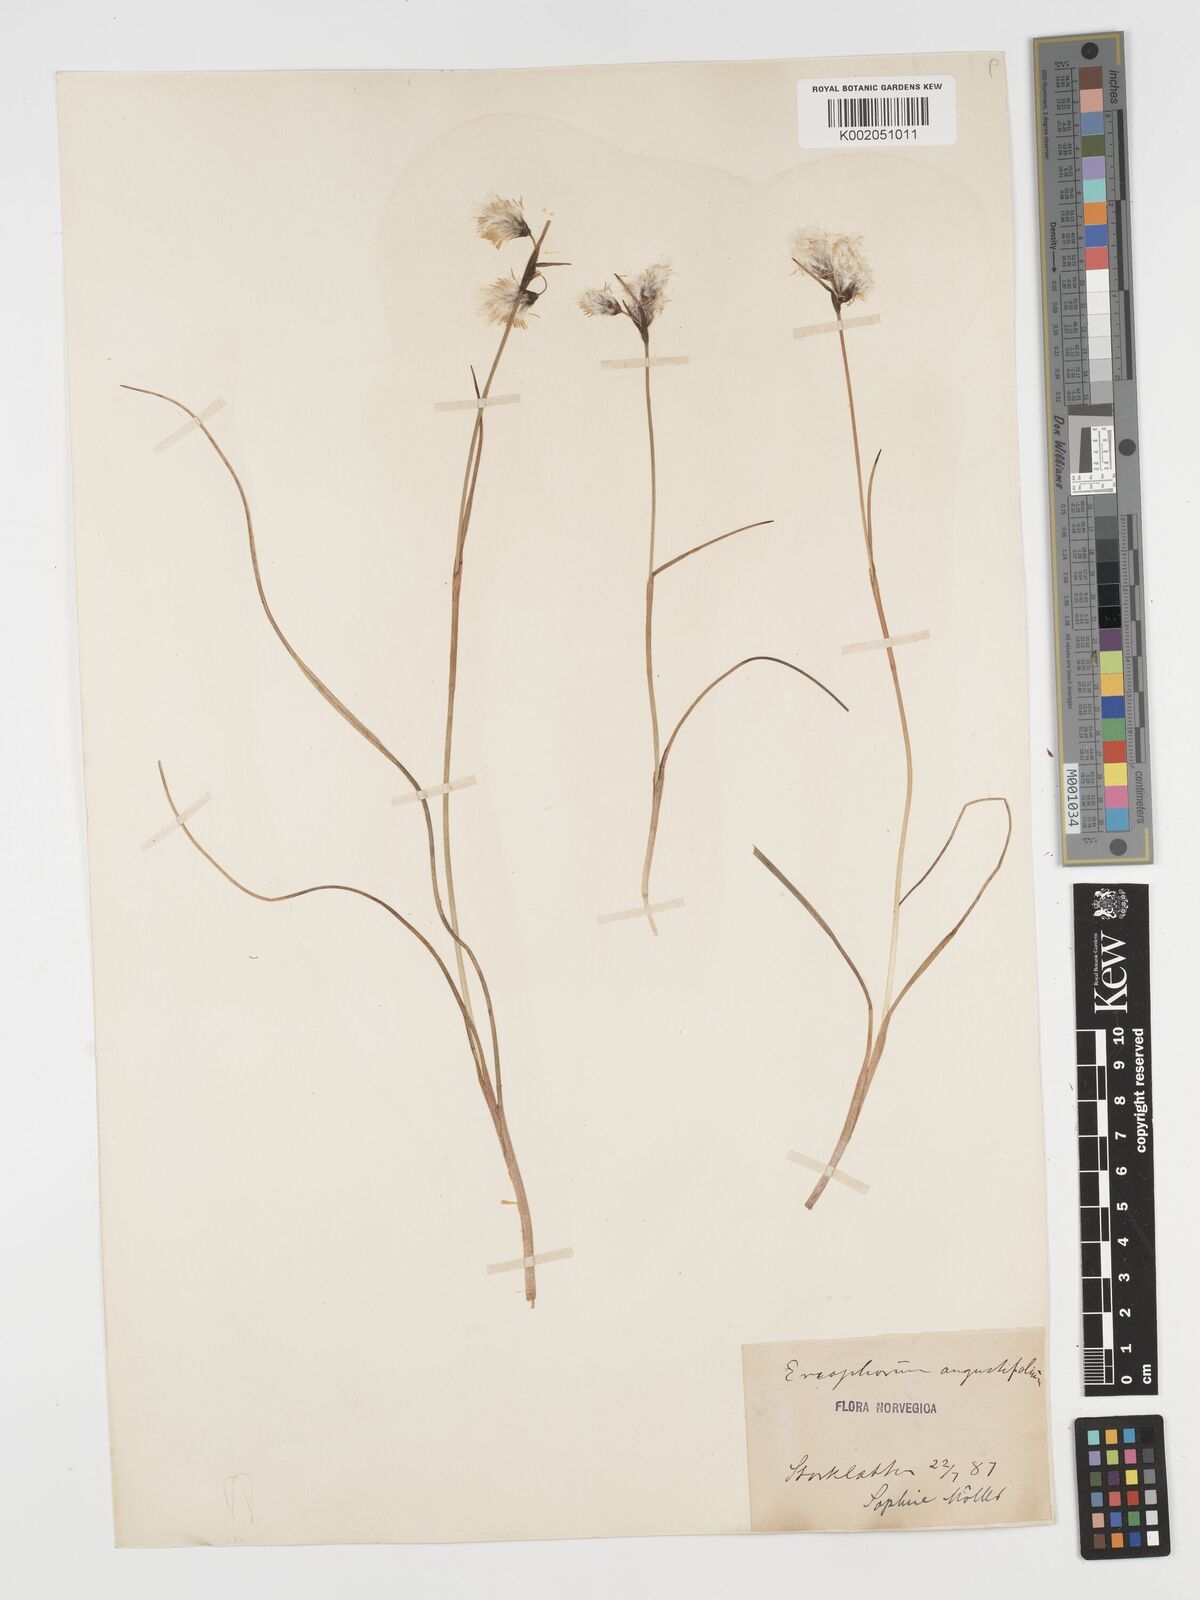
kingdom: Plantae
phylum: Tracheophyta
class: Liliopsida
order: Poales
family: Cyperaceae
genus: Eriophorum
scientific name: Eriophorum angustifolium
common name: Common cottongrass
